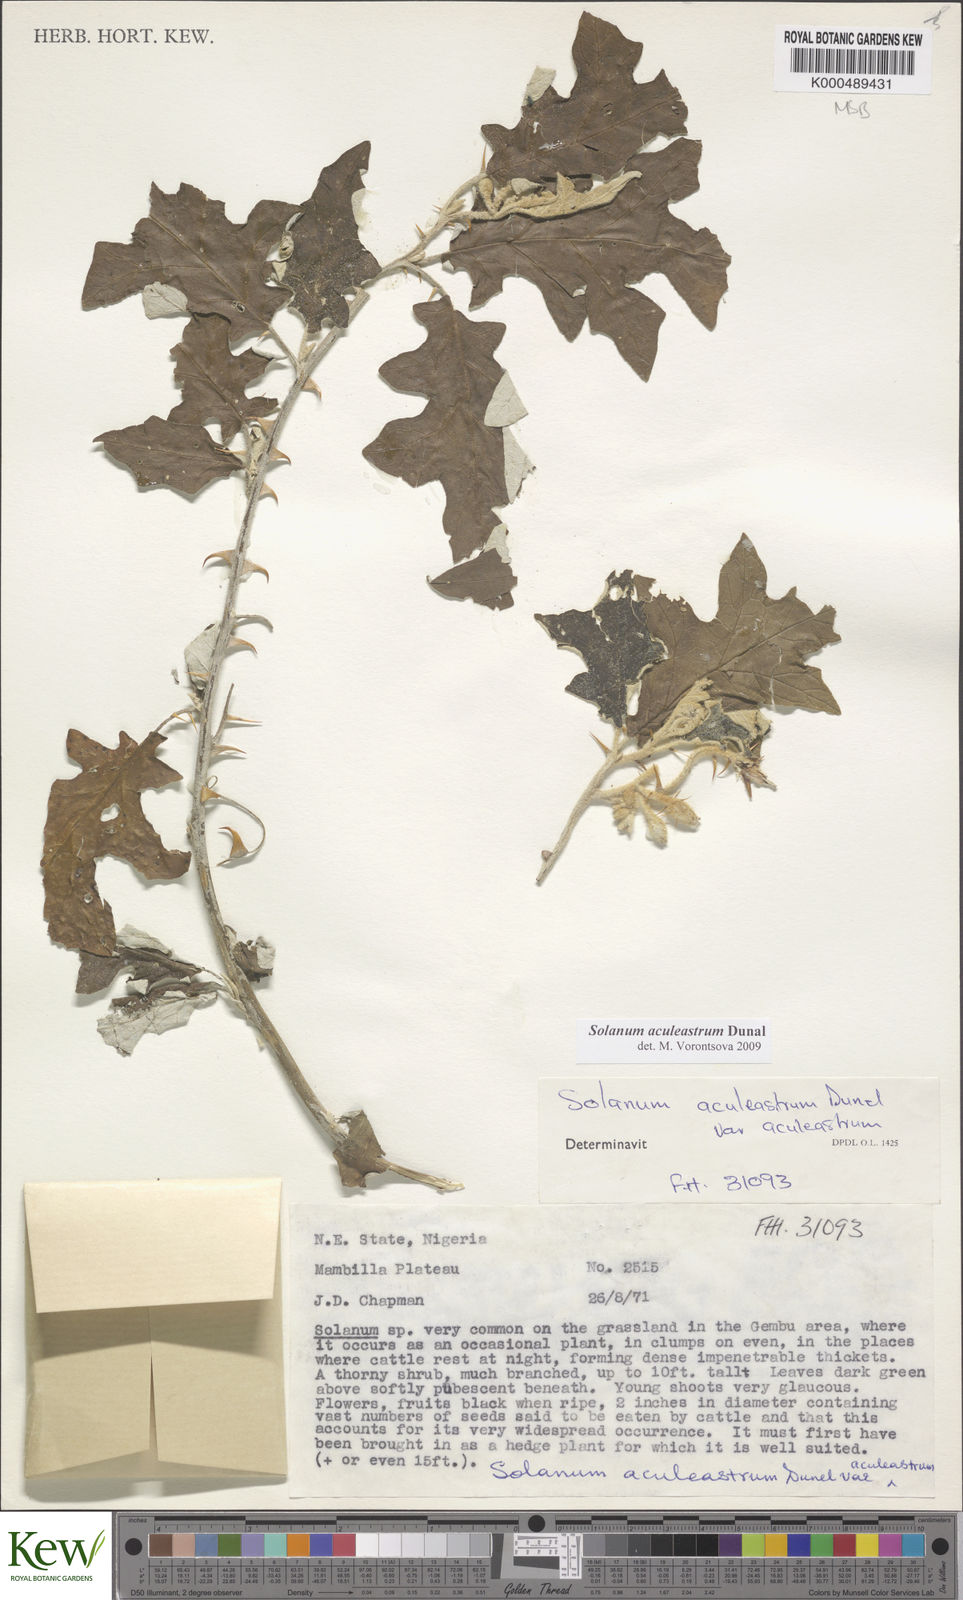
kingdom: Plantae
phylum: Tracheophyta
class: Magnoliopsida
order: Solanales
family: Solanaceae
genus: Solanum
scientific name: Solanum aculeastrum
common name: Goat bitter-apple
